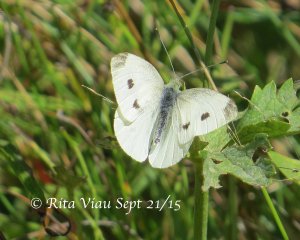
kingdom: Animalia
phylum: Arthropoda
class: Insecta
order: Lepidoptera
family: Pieridae
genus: Pieris
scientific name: Pieris rapae
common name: Cabbage White
